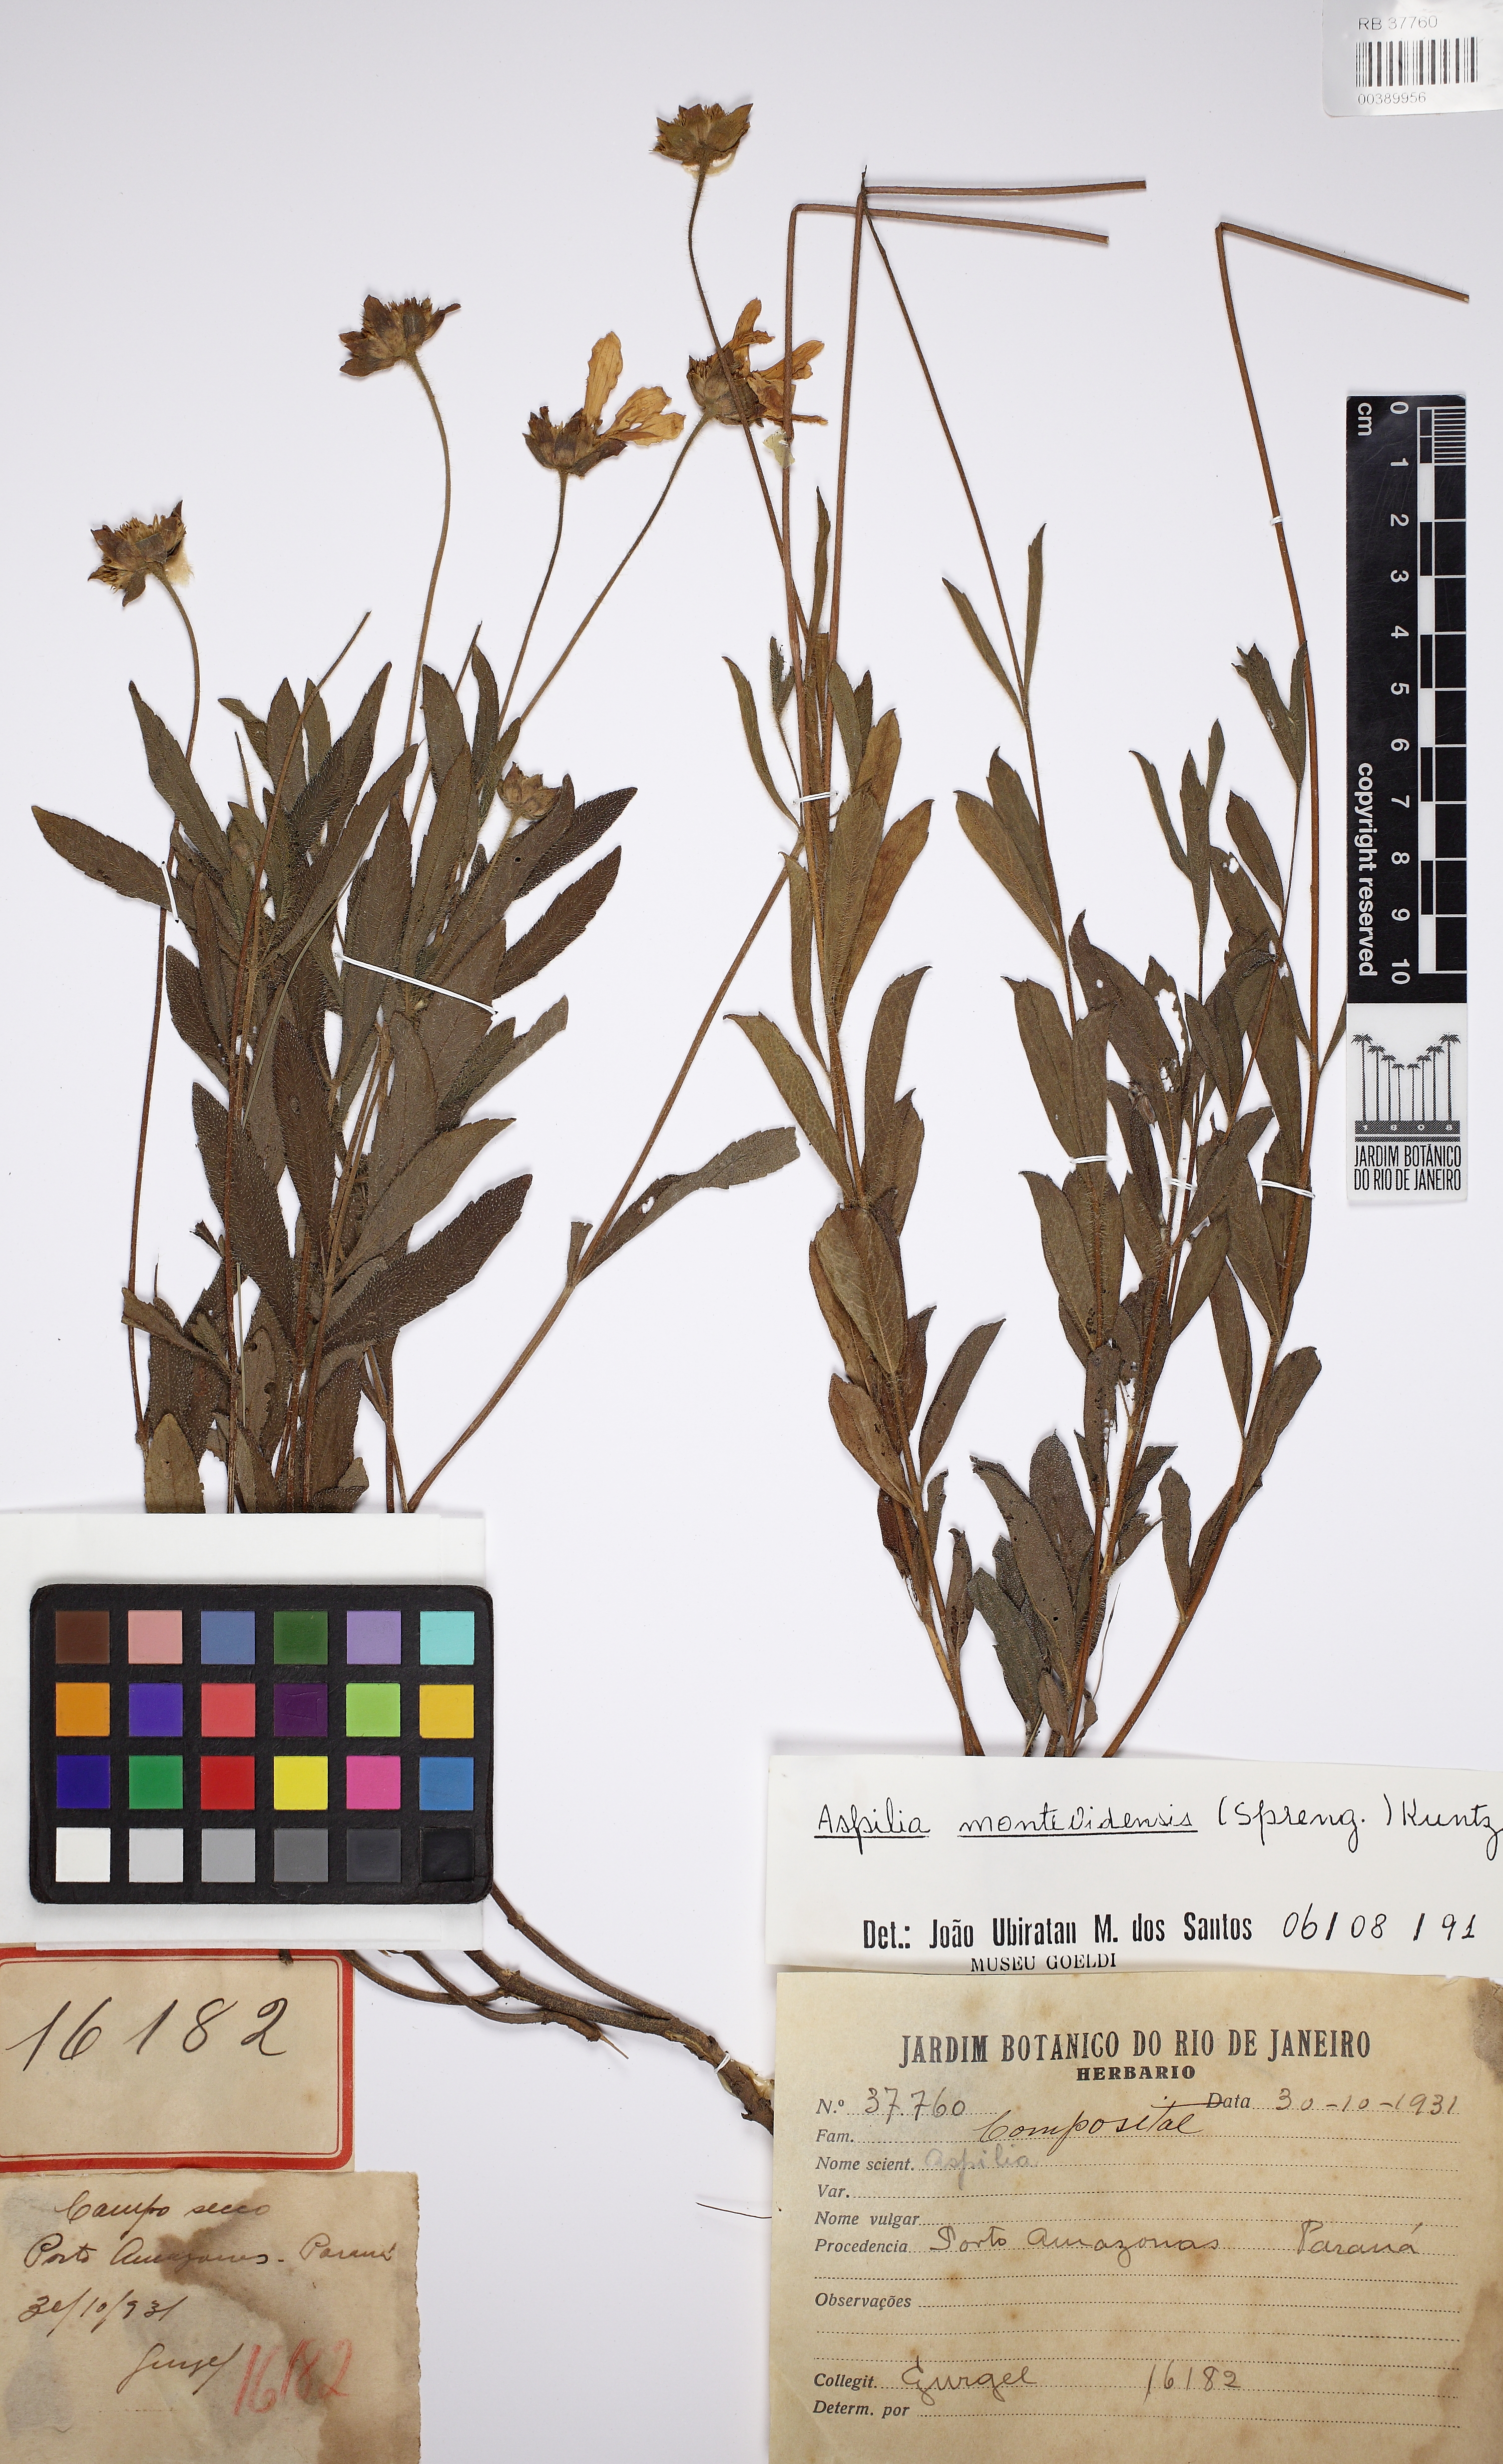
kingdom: Plantae
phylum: Tracheophyta
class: Magnoliopsida
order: Asterales
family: Asteraceae
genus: Wedelia
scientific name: Wedelia montevidensis
